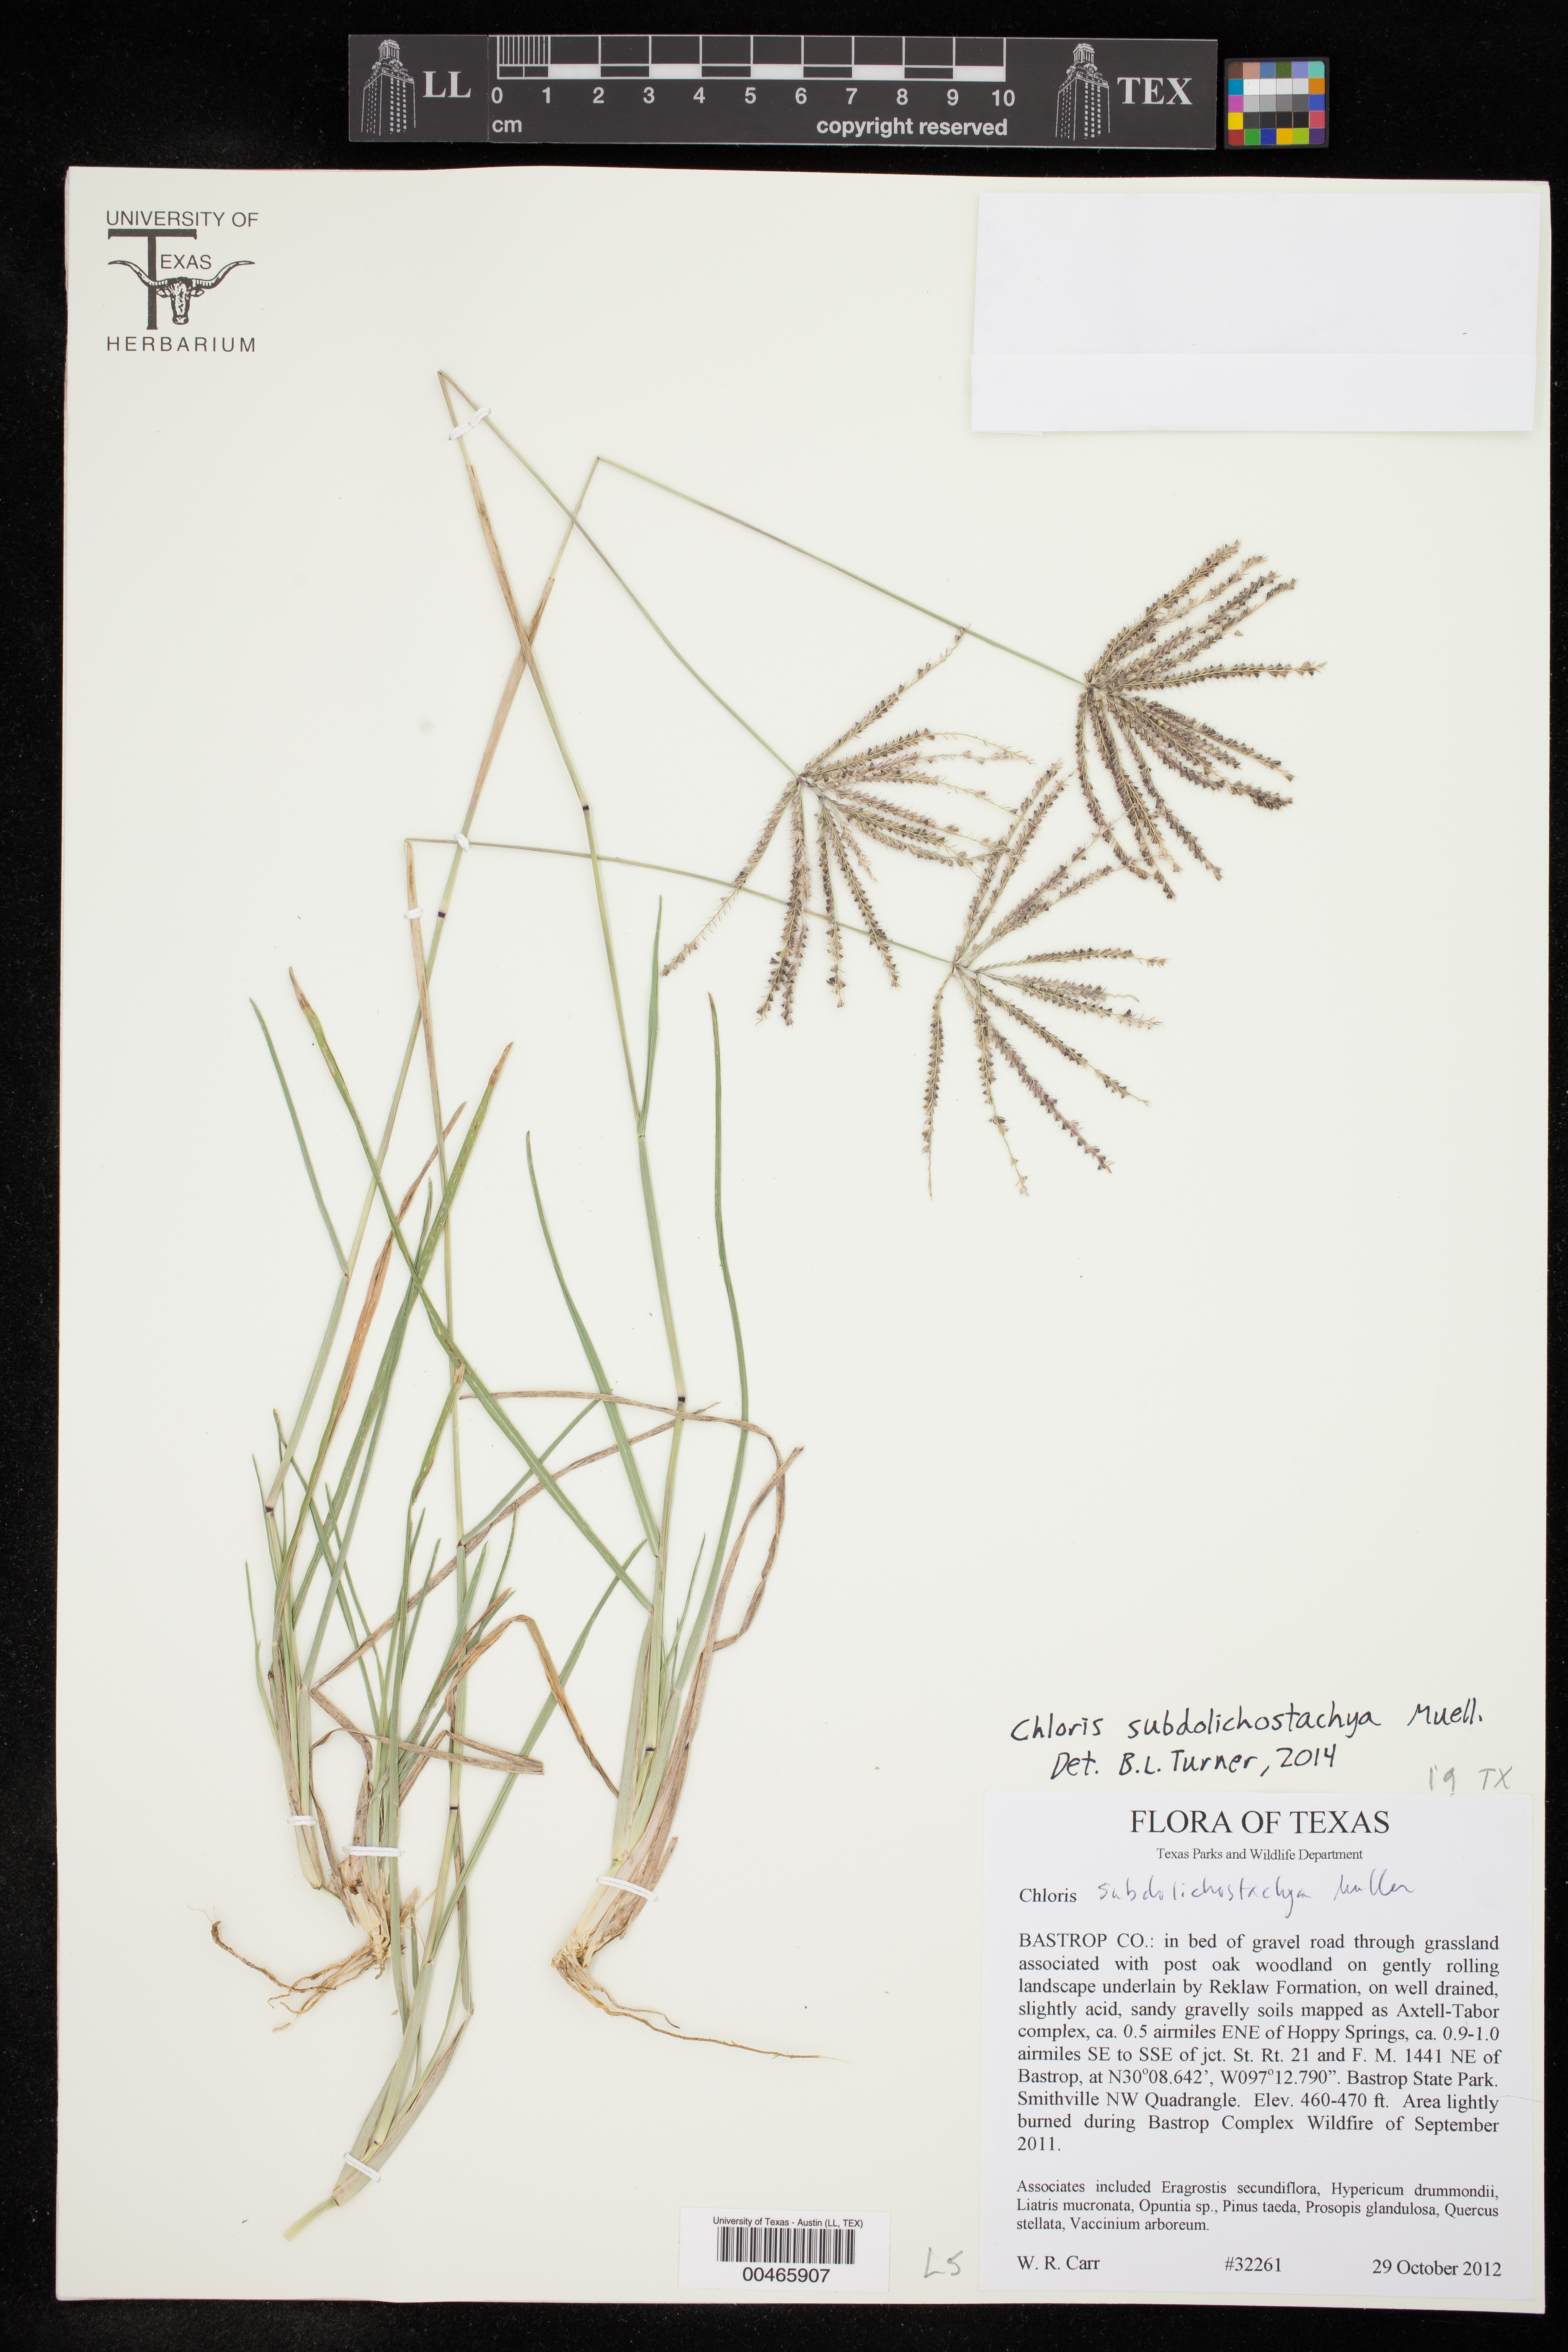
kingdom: Plantae
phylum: Tracheophyta
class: Liliopsida
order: Poales
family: Poaceae
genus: Chloris
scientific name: Chloris subdolichostachya
